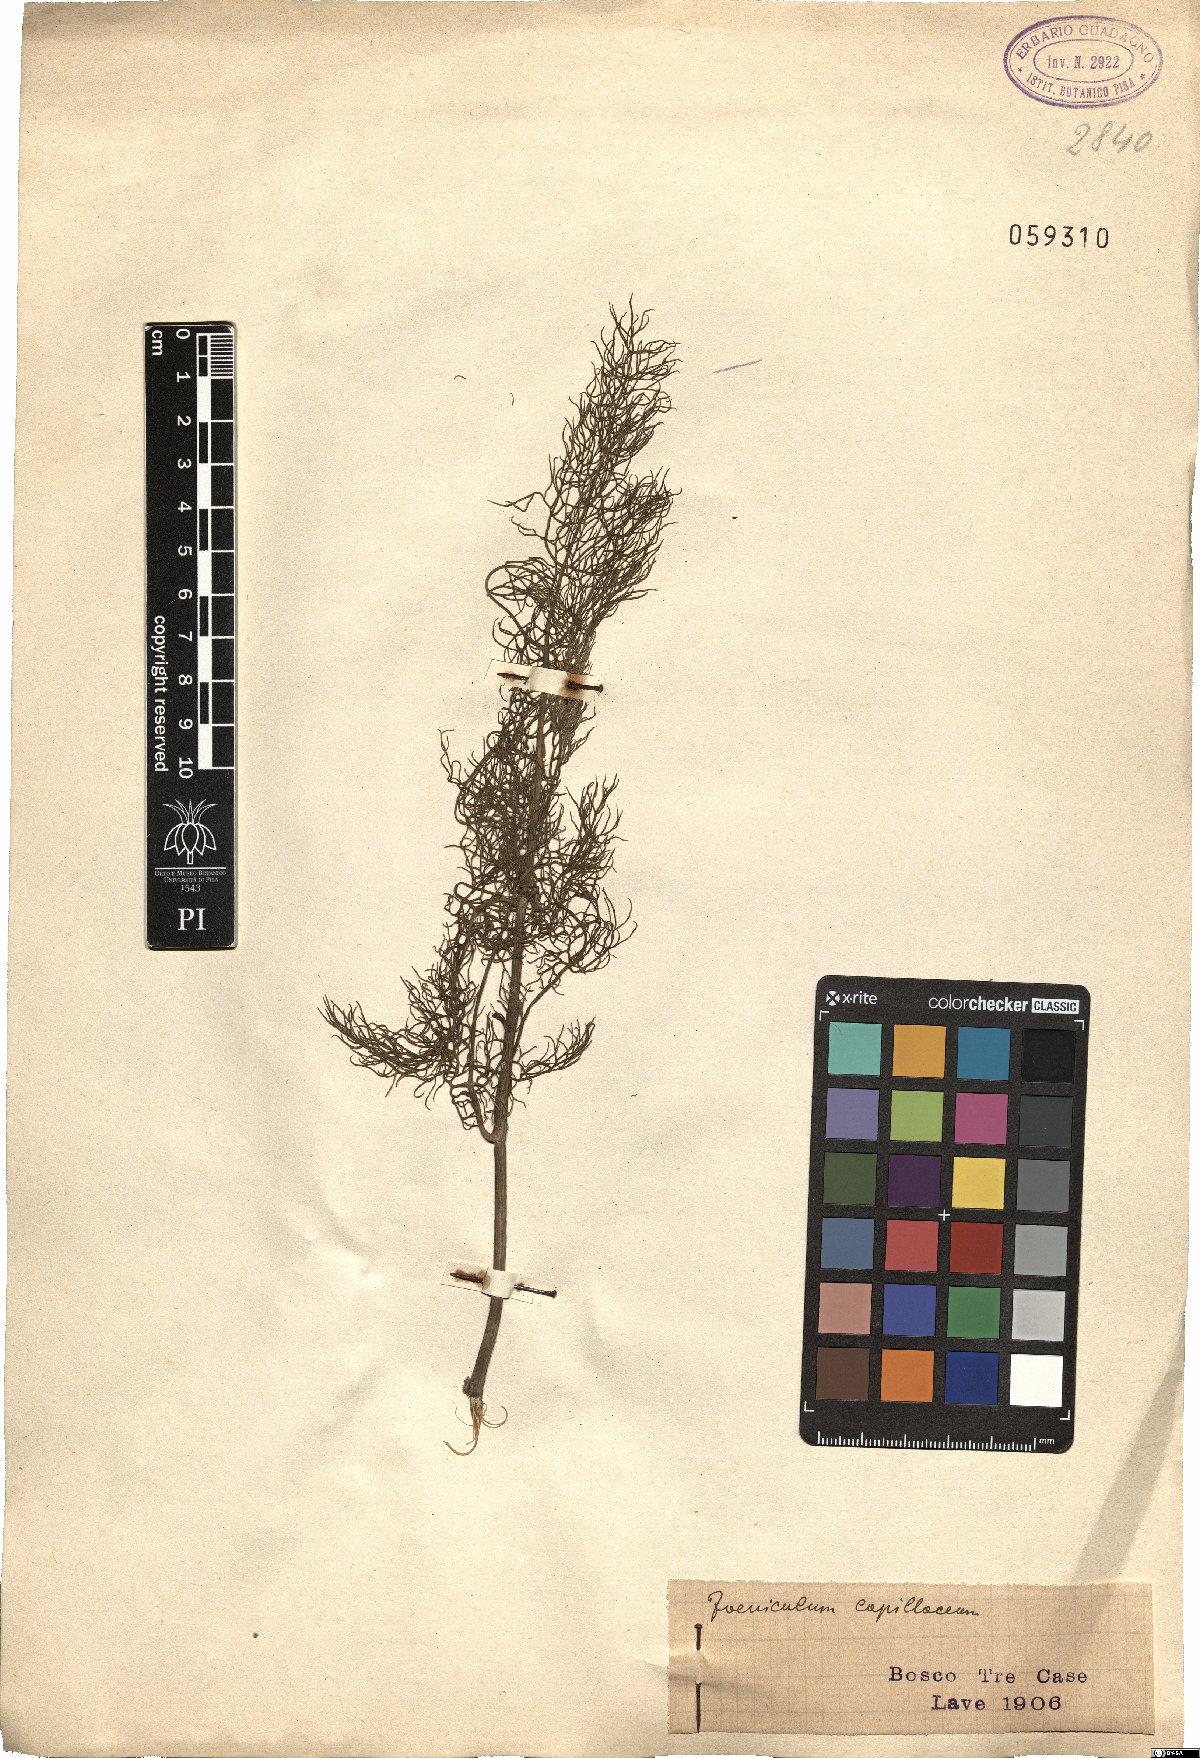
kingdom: Plantae
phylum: Tracheophyta
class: Magnoliopsida
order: Apiales
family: Apiaceae
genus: Foeniculum
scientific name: Foeniculum vulgare
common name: Fennel
